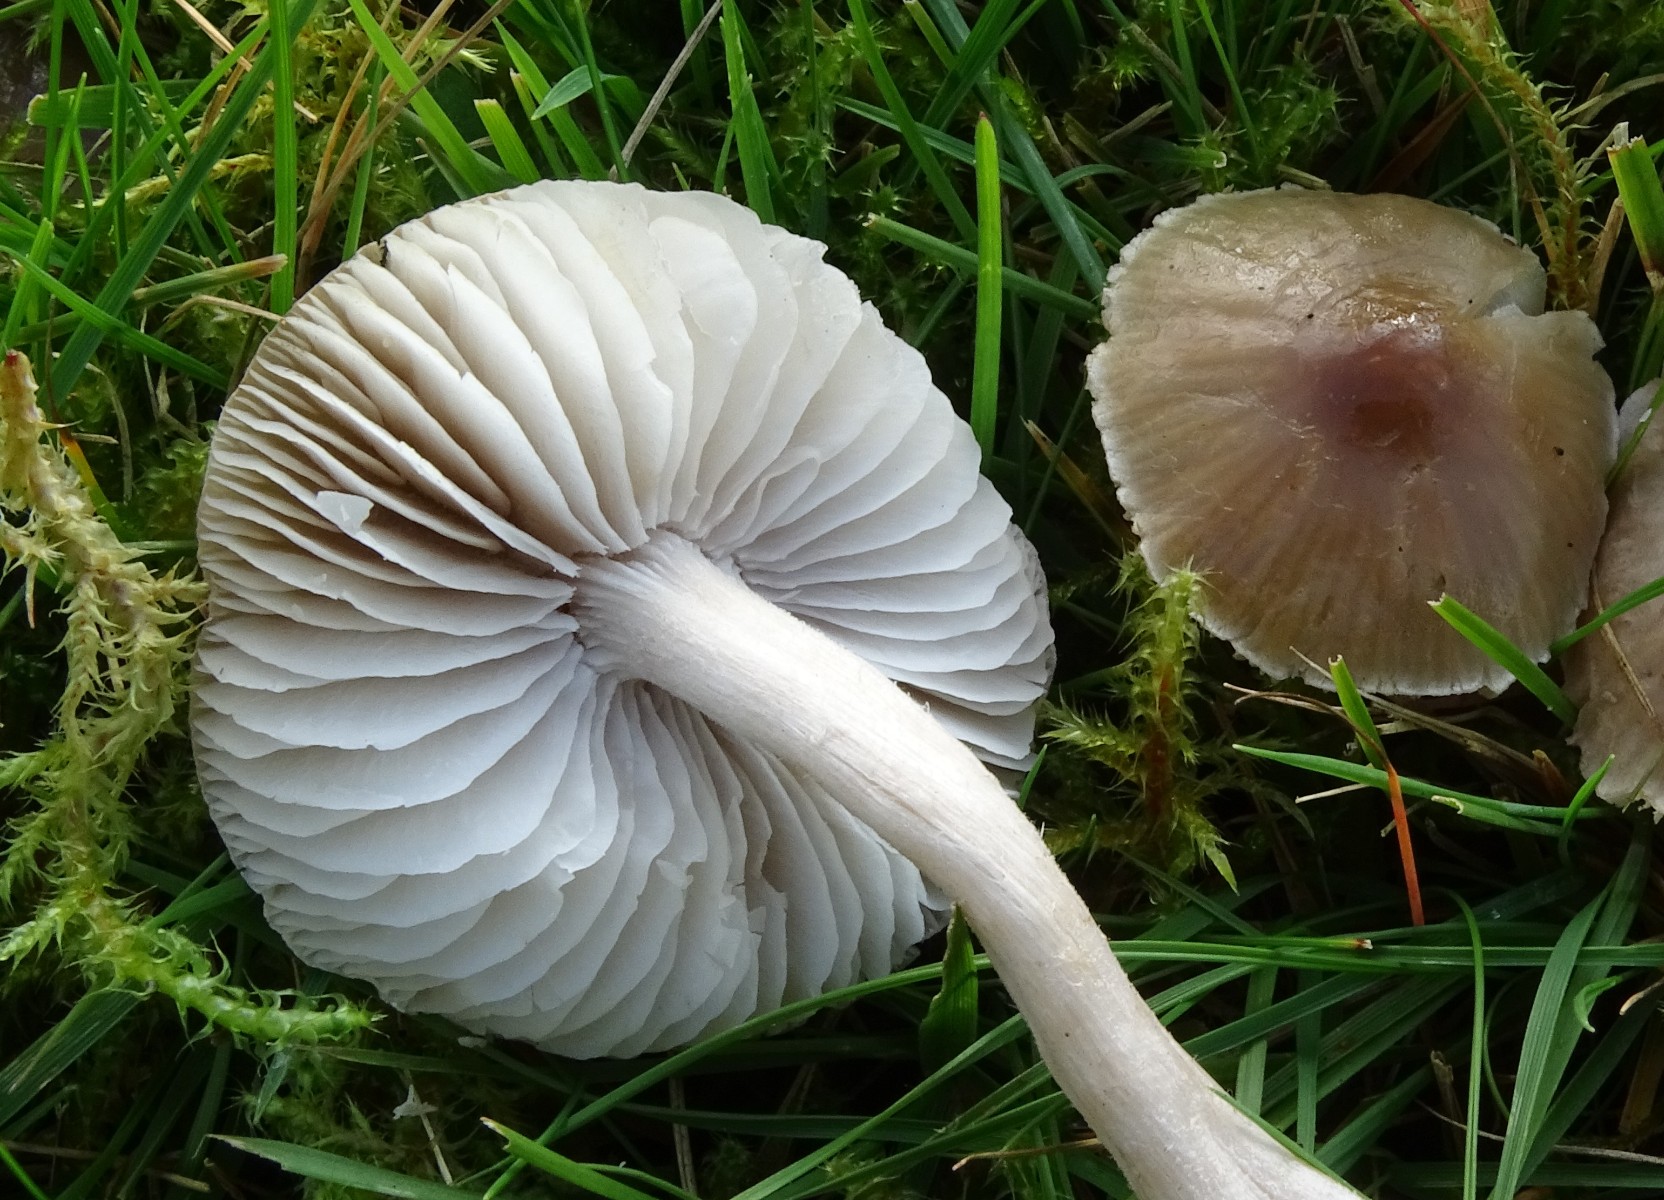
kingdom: Fungi
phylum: Basidiomycota
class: Agaricomycetes
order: Agaricales
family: Tricholomataceae
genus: Dermoloma
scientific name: Dermoloma cuneifolium
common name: eng-nonnehat
